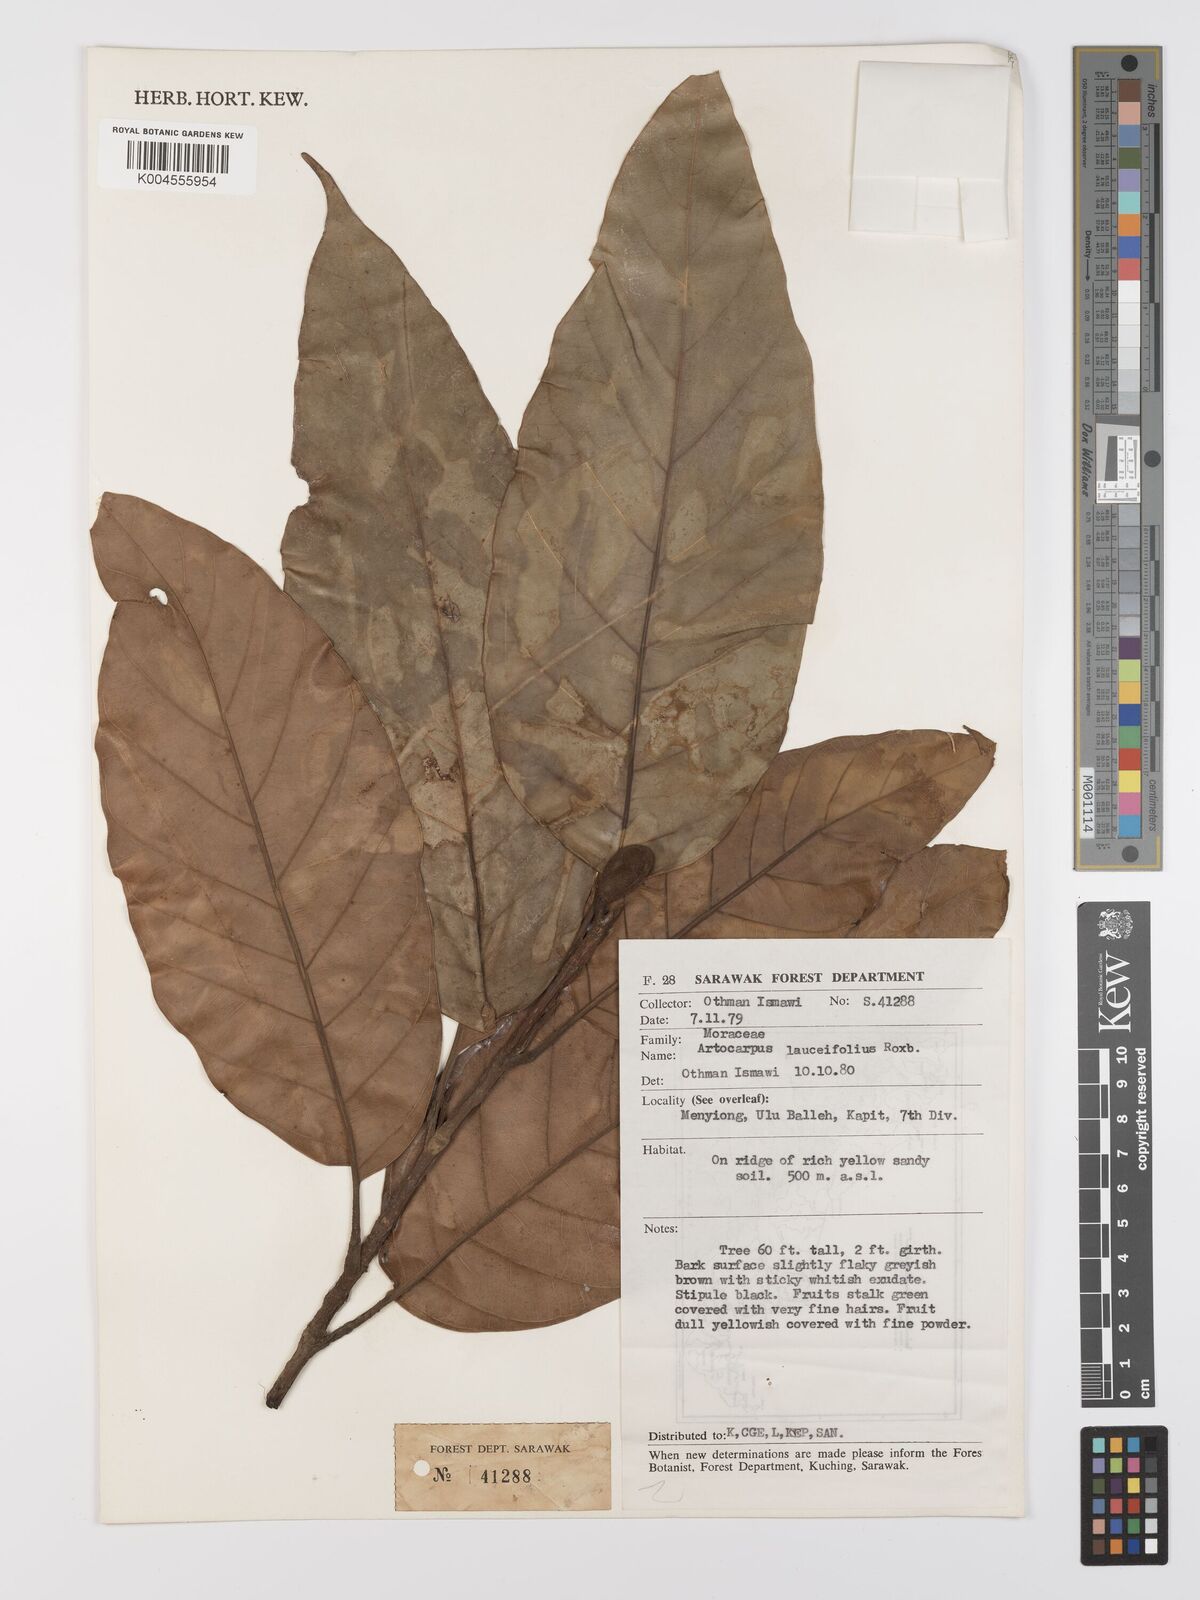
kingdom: Plantae
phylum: Tracheophyta
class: Magnoliopsida
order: Rosales
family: Moraceae
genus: Artocarpus
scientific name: Artocarpus lanceifolius
